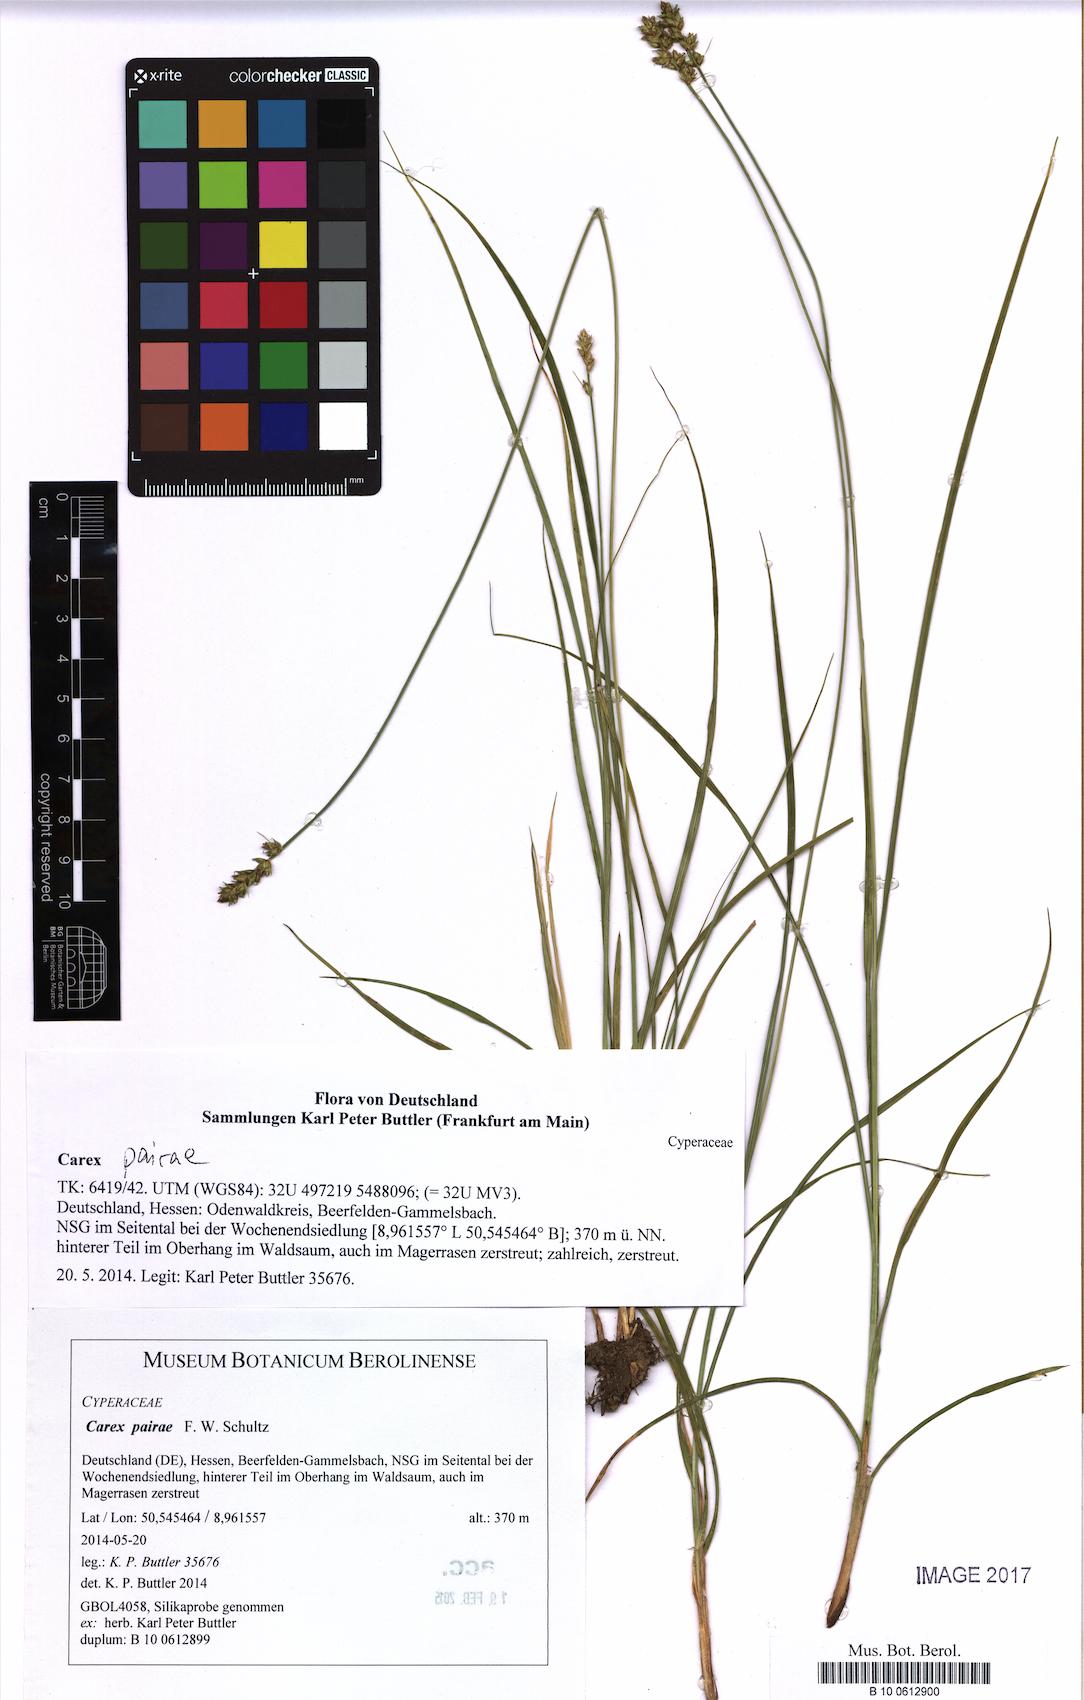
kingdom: Plantae
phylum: Tracheophyta
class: Liliopsida
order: Poales
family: Cyperaceae
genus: Carex
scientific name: Carex pairae
